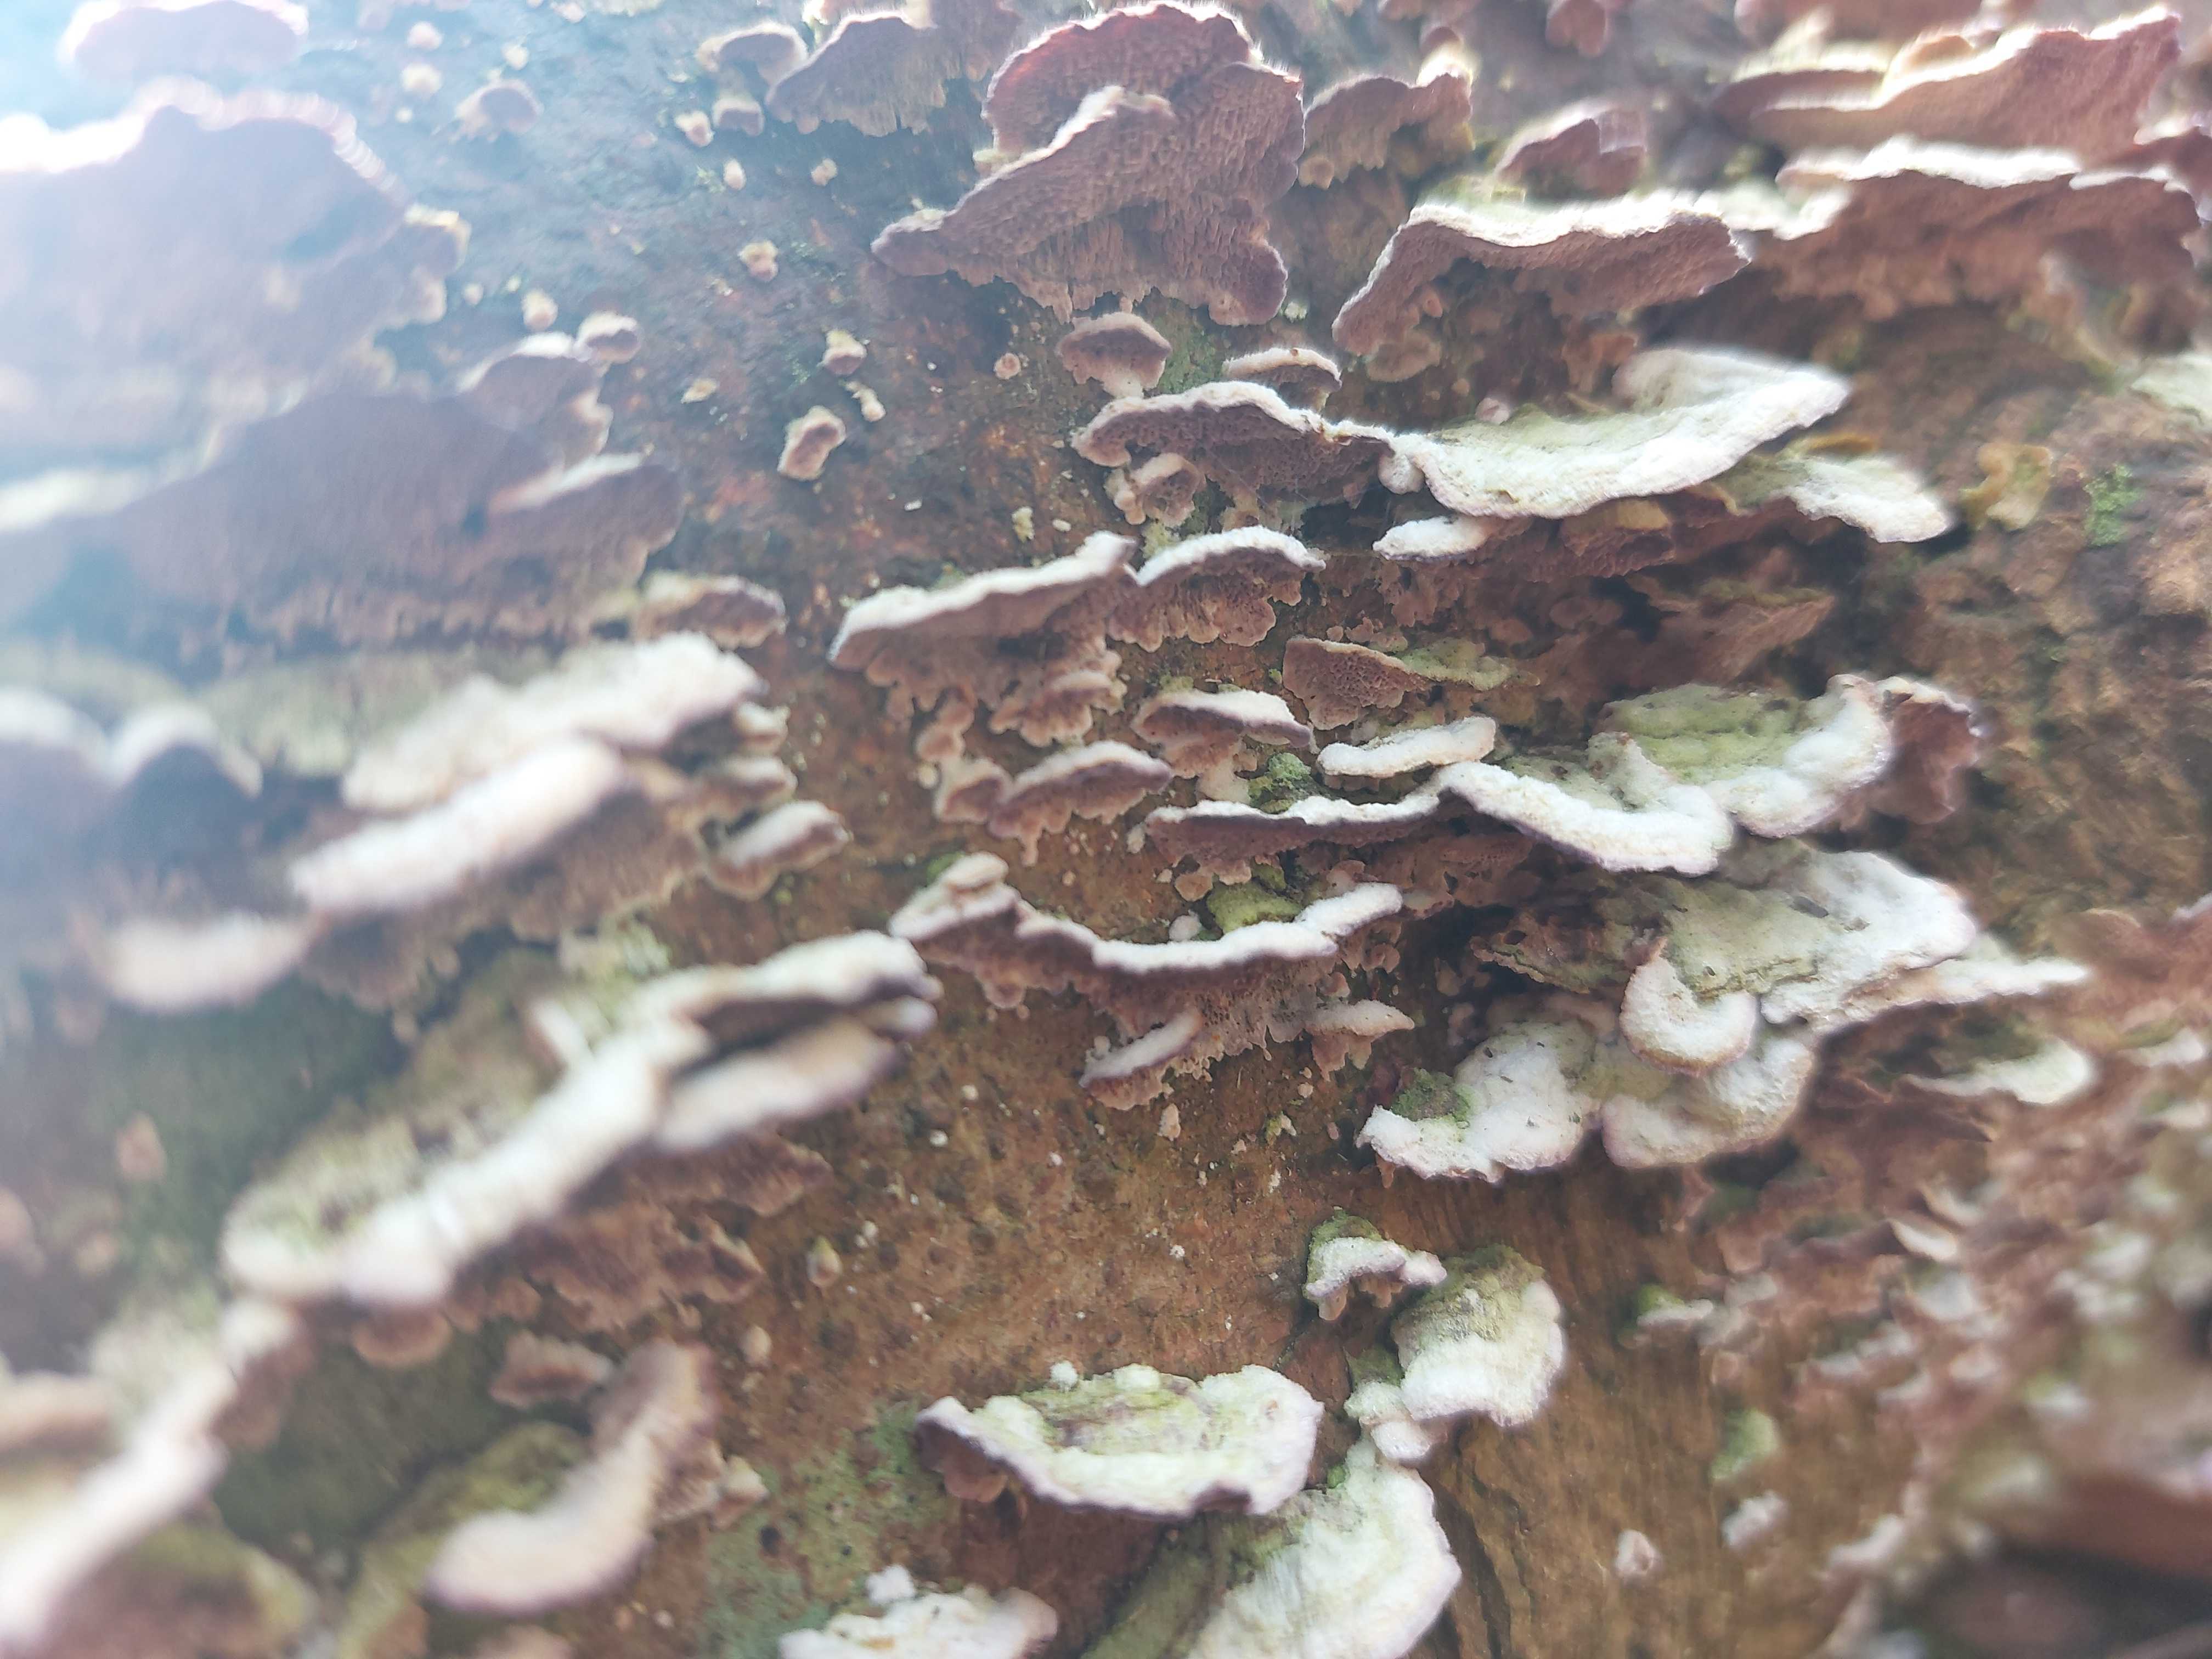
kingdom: Fungi
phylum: Basidiomycota
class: Agaricomycetes
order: Hymenochaetales
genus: Trichaptum
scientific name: Trichaptum abietinum
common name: almindelig violporesvamp
